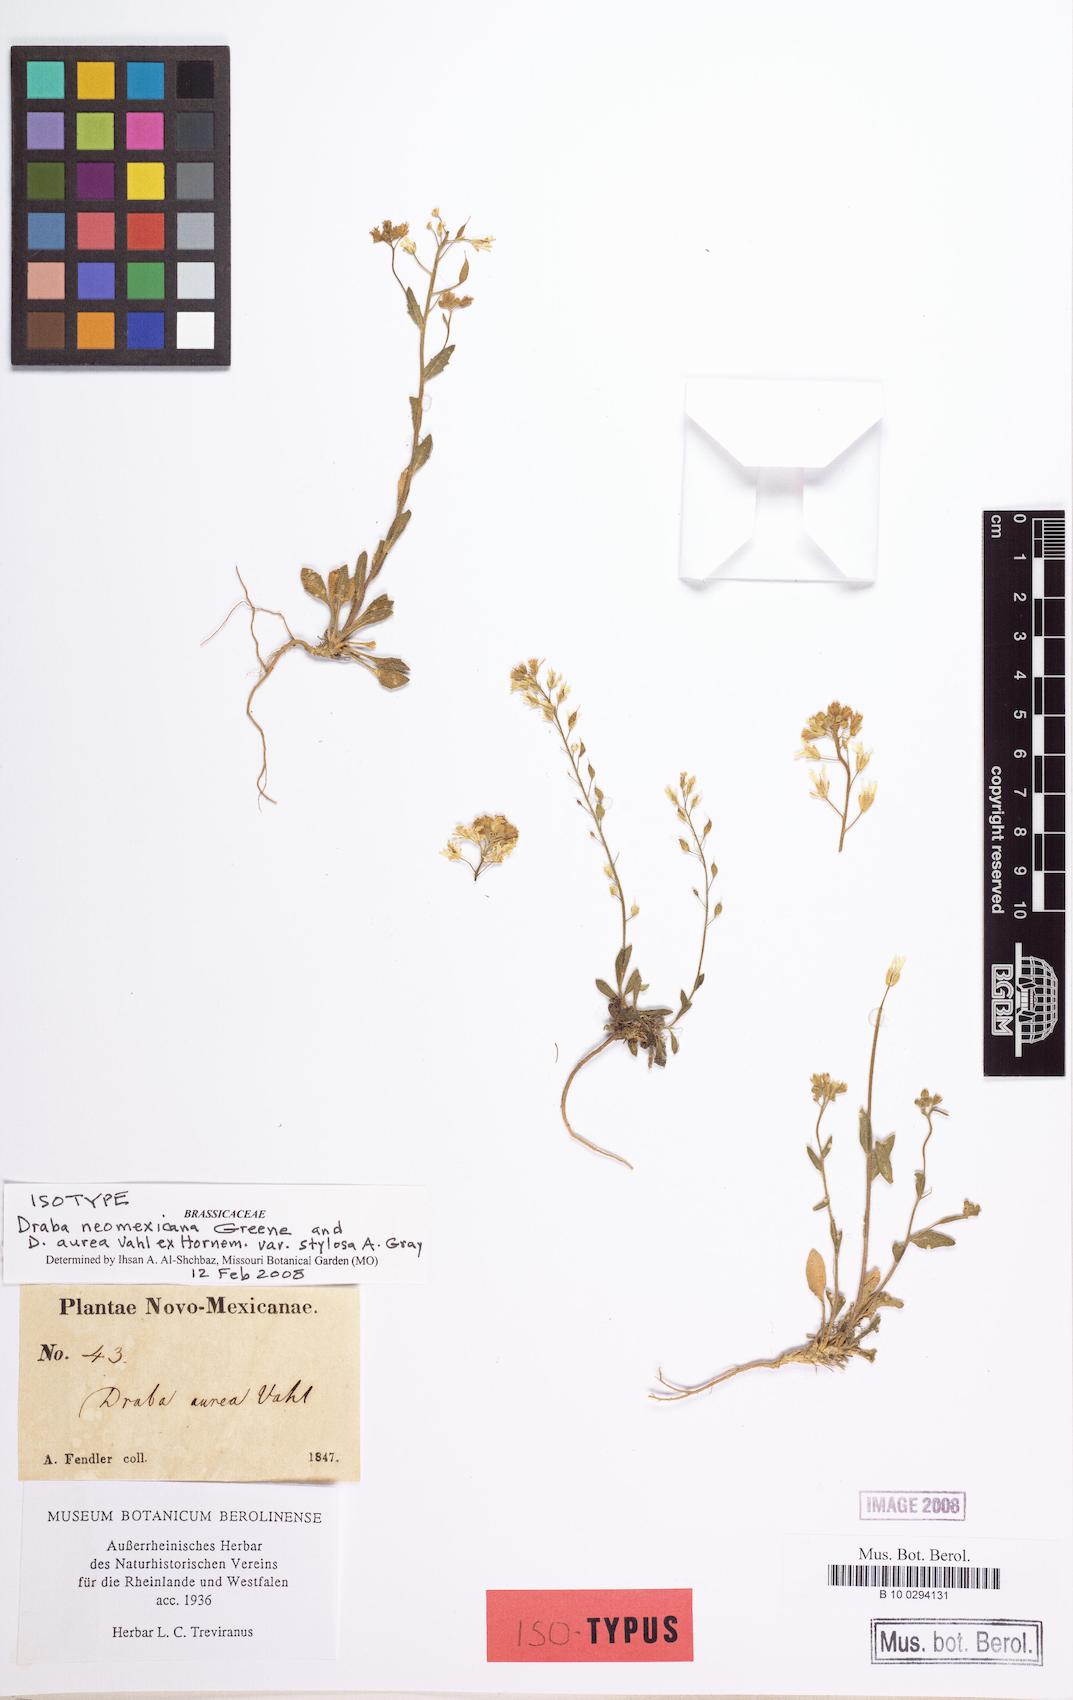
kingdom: Plantae
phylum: Tracheophyta
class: Magnoliopsida
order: Brassicales
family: Brassicaceae
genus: Draba
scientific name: Draba helleriana
